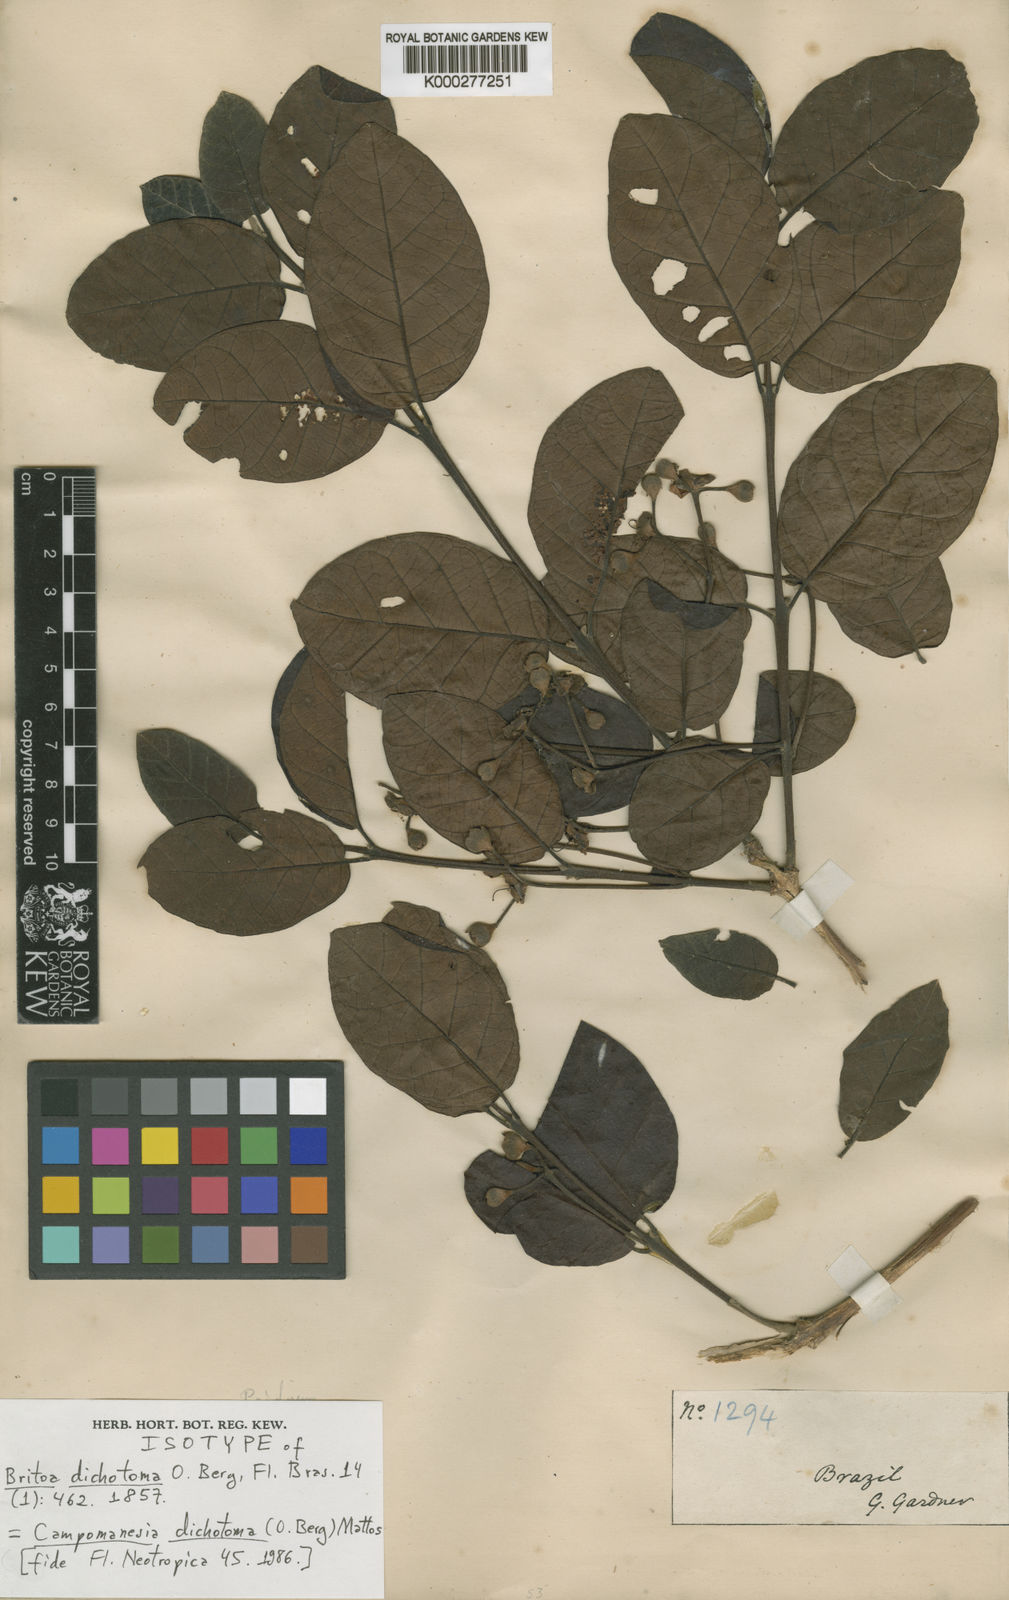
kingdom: Plantae
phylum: Tracheophyta
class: Magnoliopsida
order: Myrtales
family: Myrtaceae
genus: Campomanesia
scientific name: Campomanesia dichotoma
